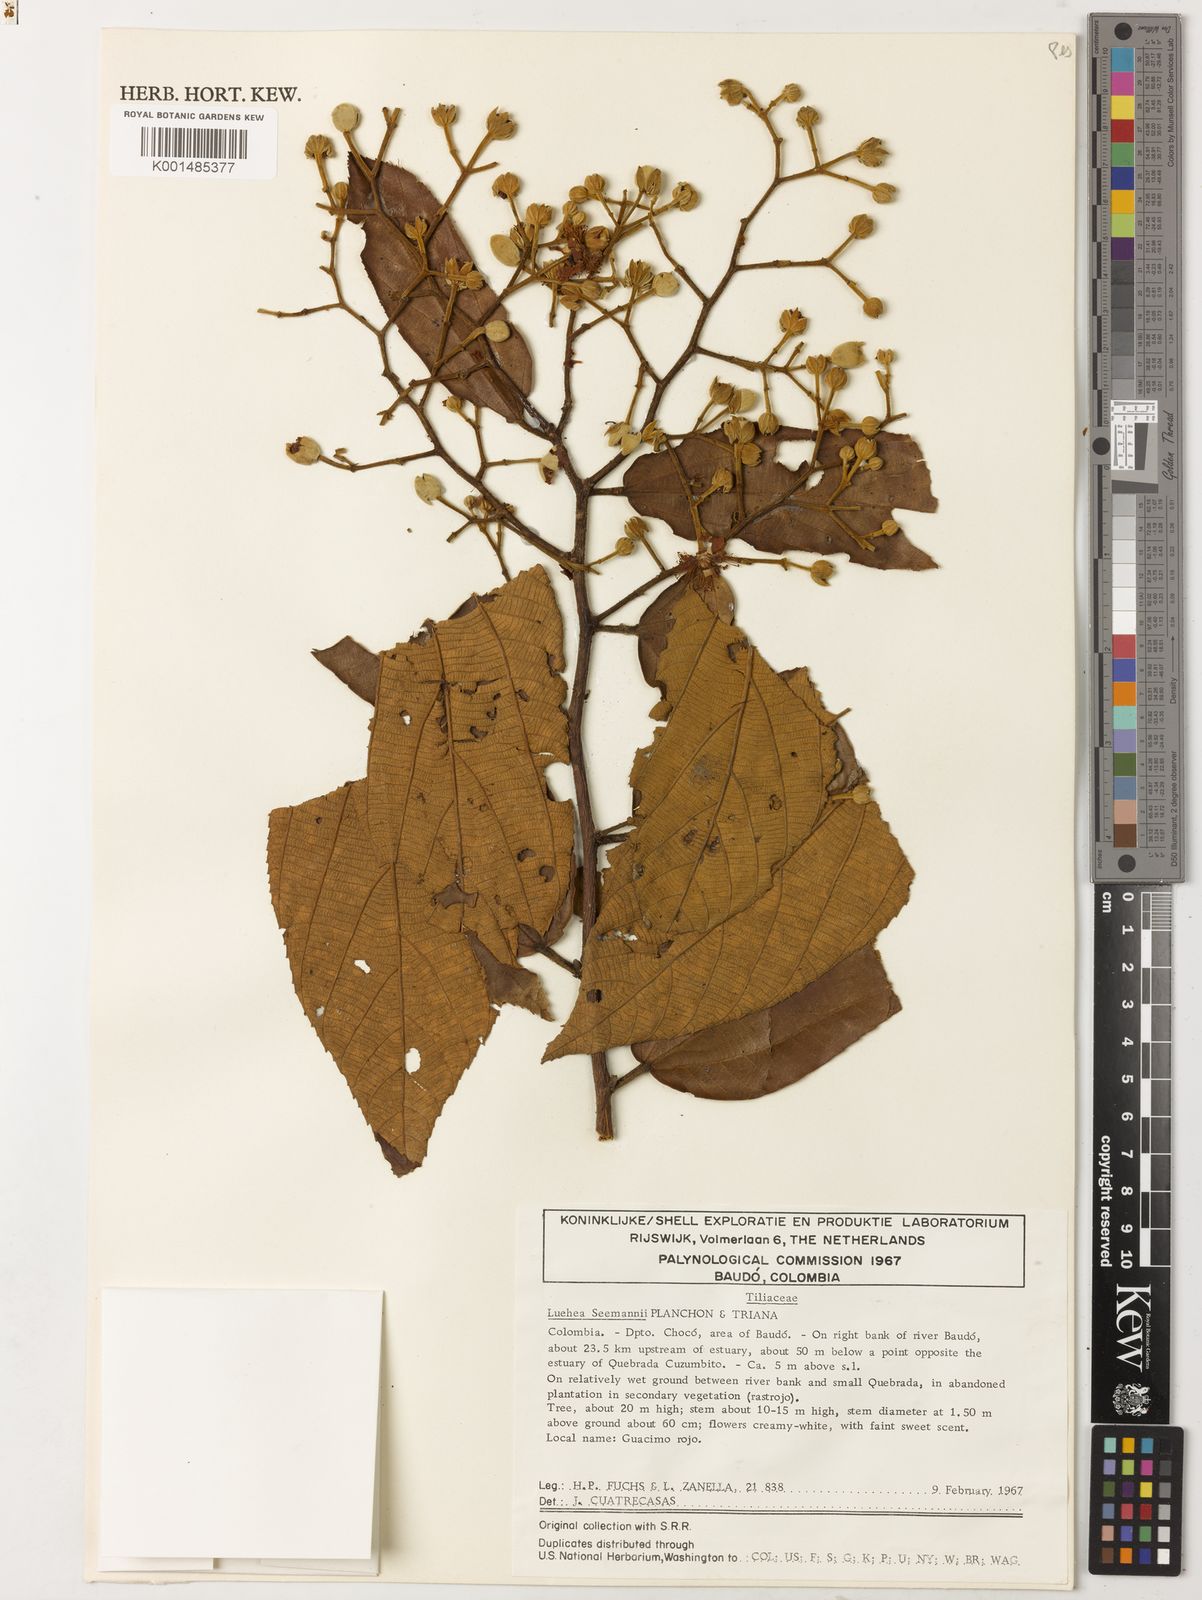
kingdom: Plantae
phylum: Tracheophyta
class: Magnoliopsida
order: Malvales
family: Malvaceae
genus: Luehea
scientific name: Luehea seemannii
